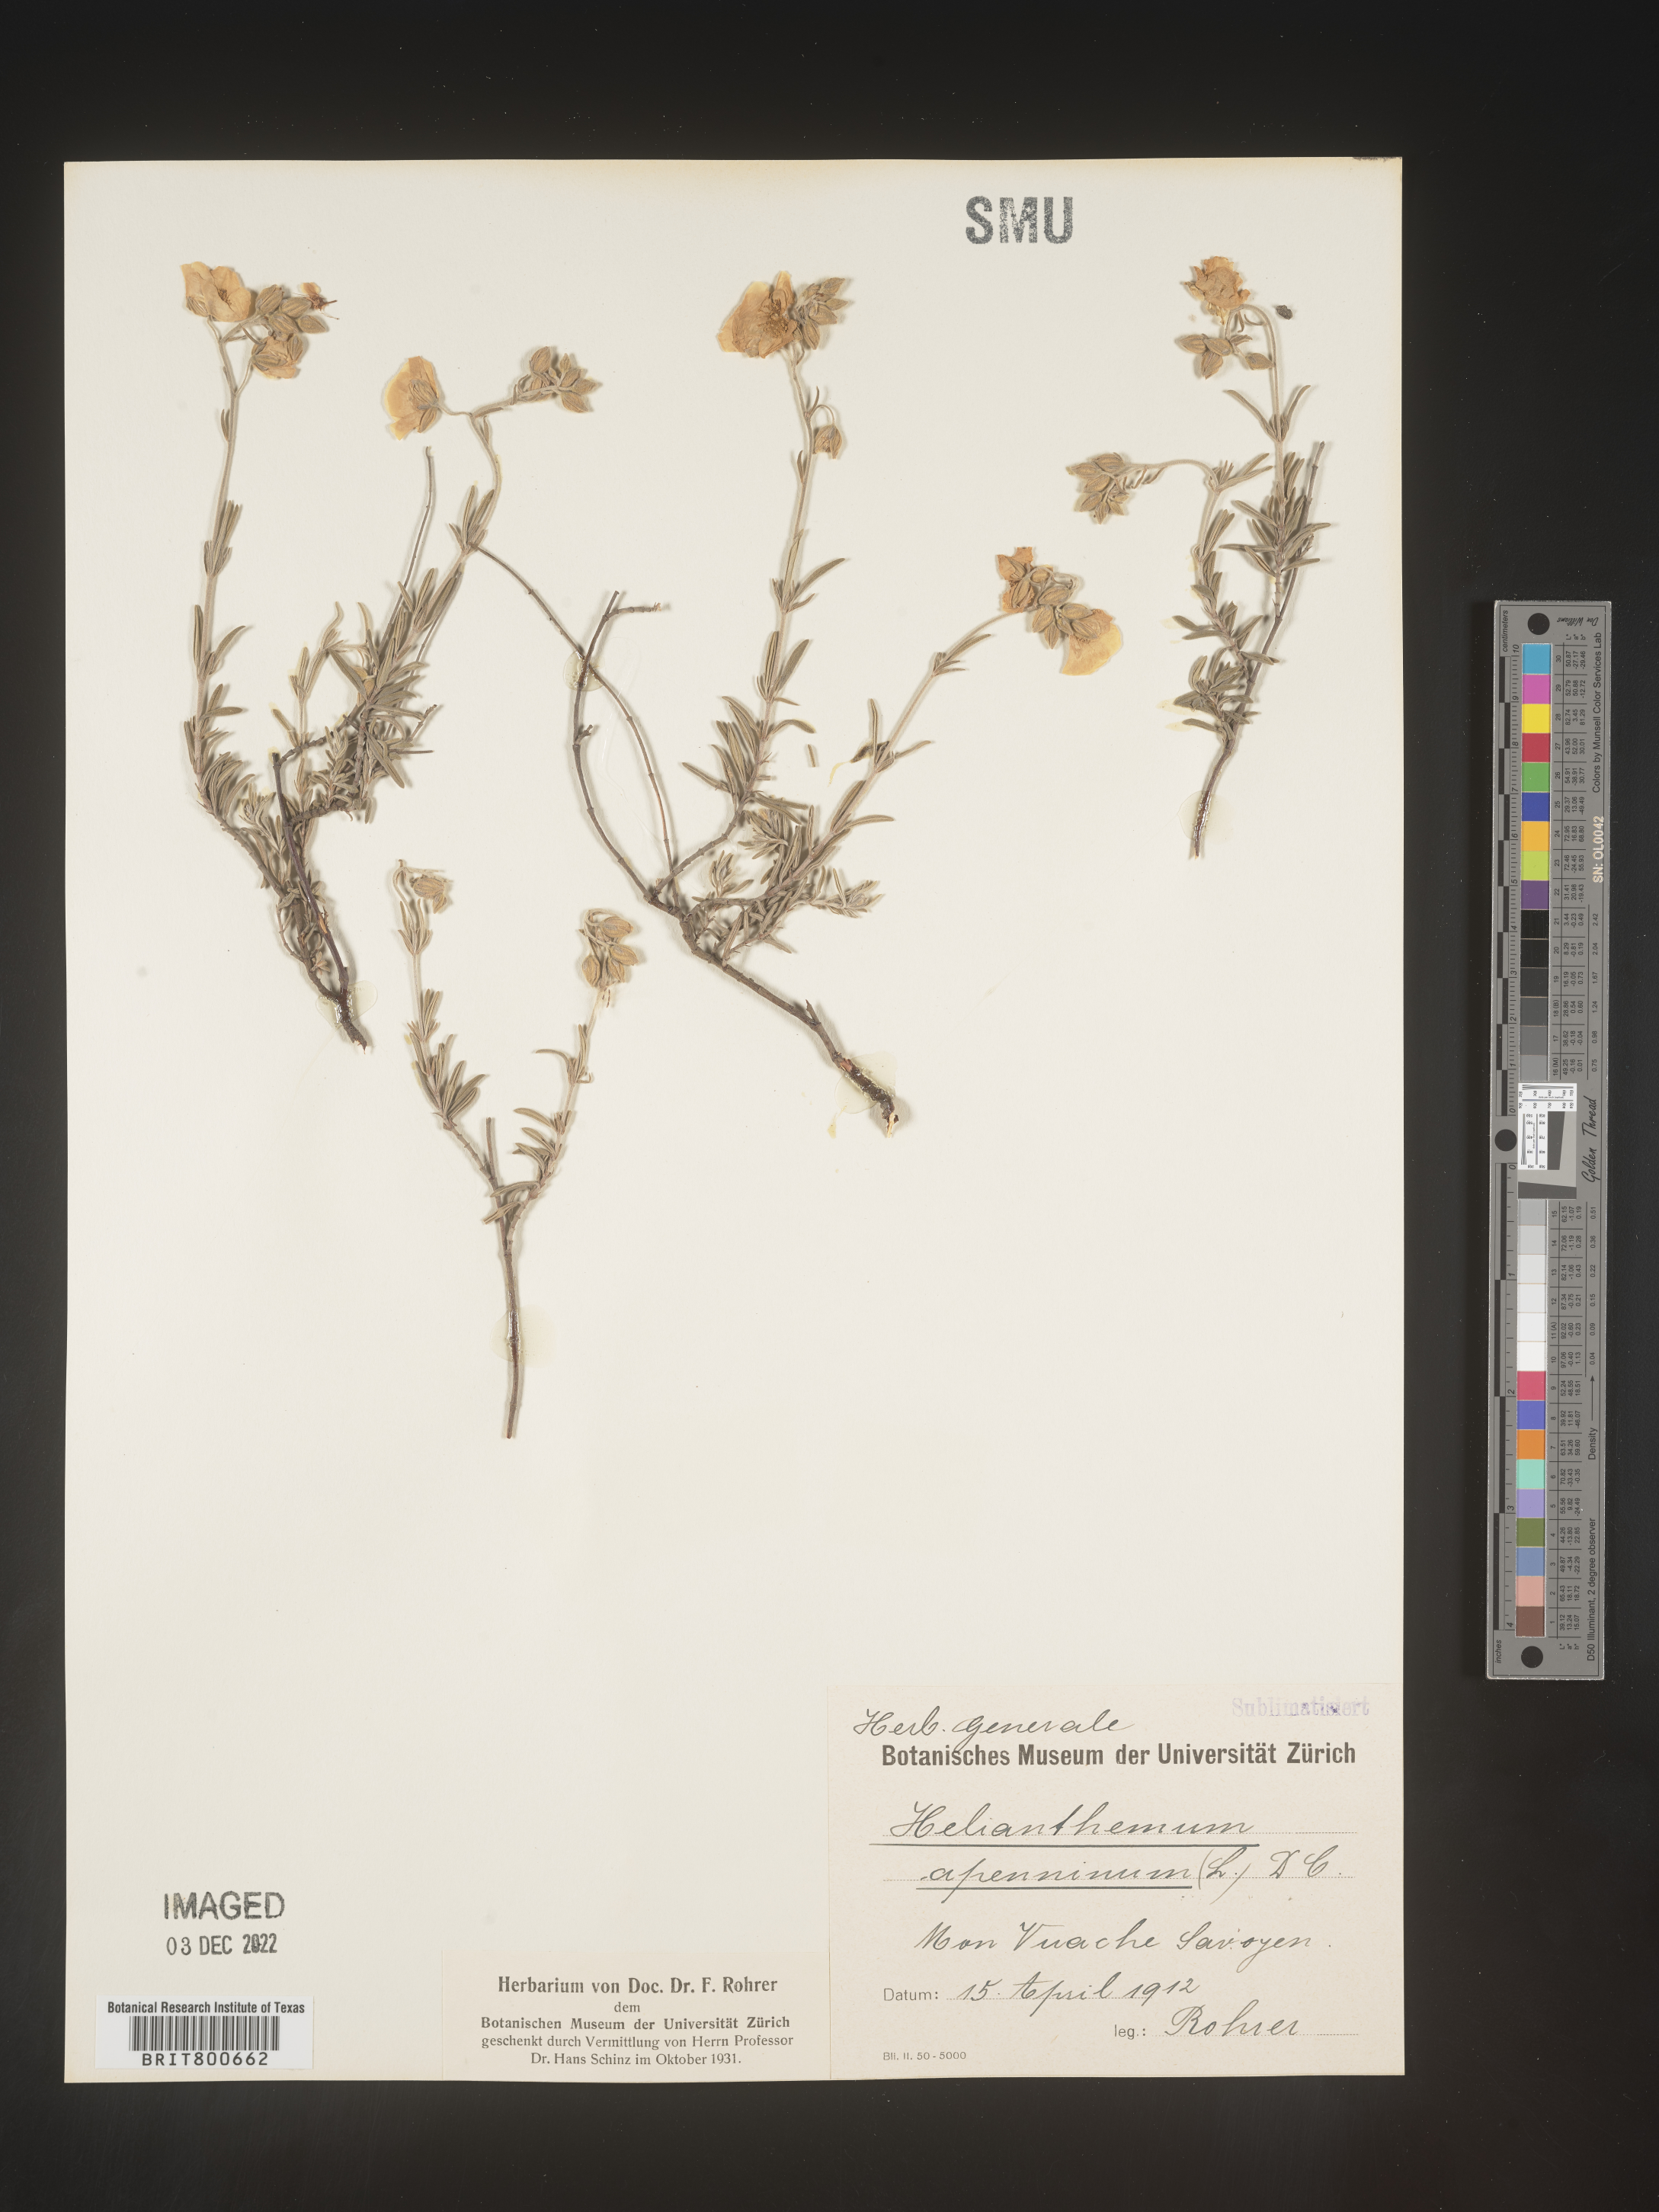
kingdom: Plantae
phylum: Tracheophyta
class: Magnoliopsida
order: Malvales
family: Cistaceae
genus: Helianthemum
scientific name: Helianthemum
